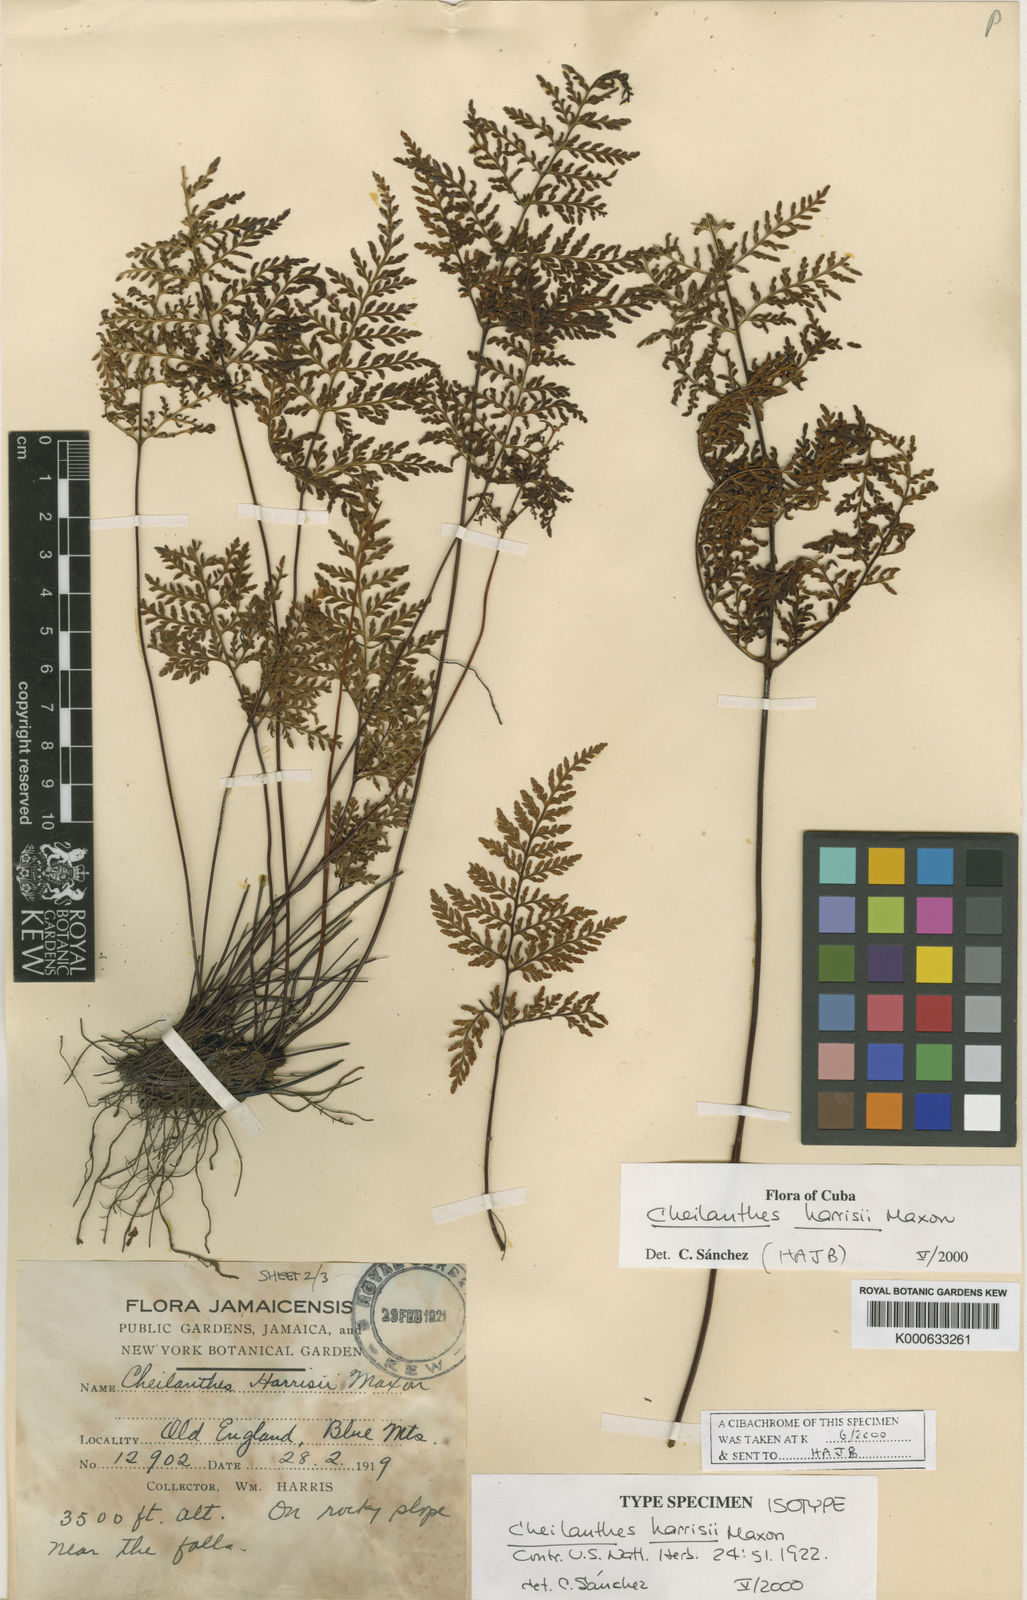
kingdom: Plantae
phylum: Tracheophyta
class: Polypodiopsida
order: Polypodiales
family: Pteridaceae
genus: Gaga
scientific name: Gaga harrisii
